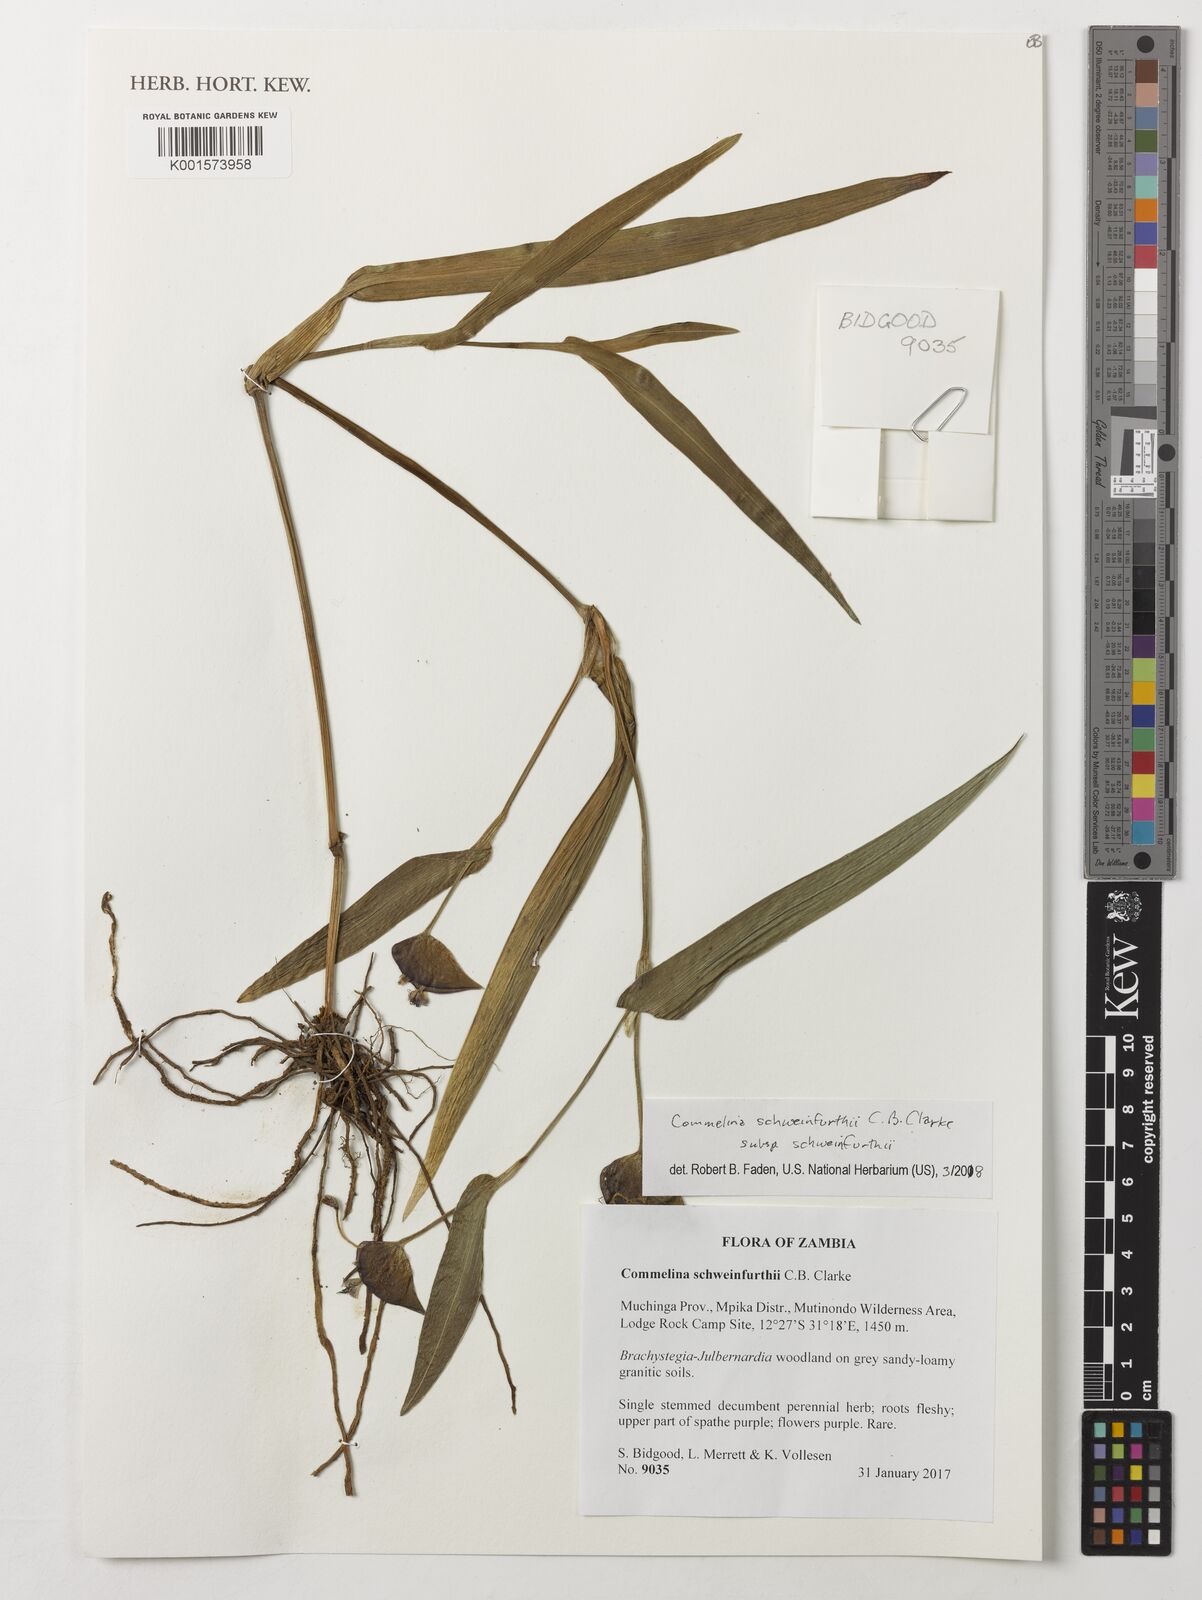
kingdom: Plantae
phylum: Tracheophyta
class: Liliopsida
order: Commelinales
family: Commelinaceae
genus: Commelina
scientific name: Commelina schweinfurthii
